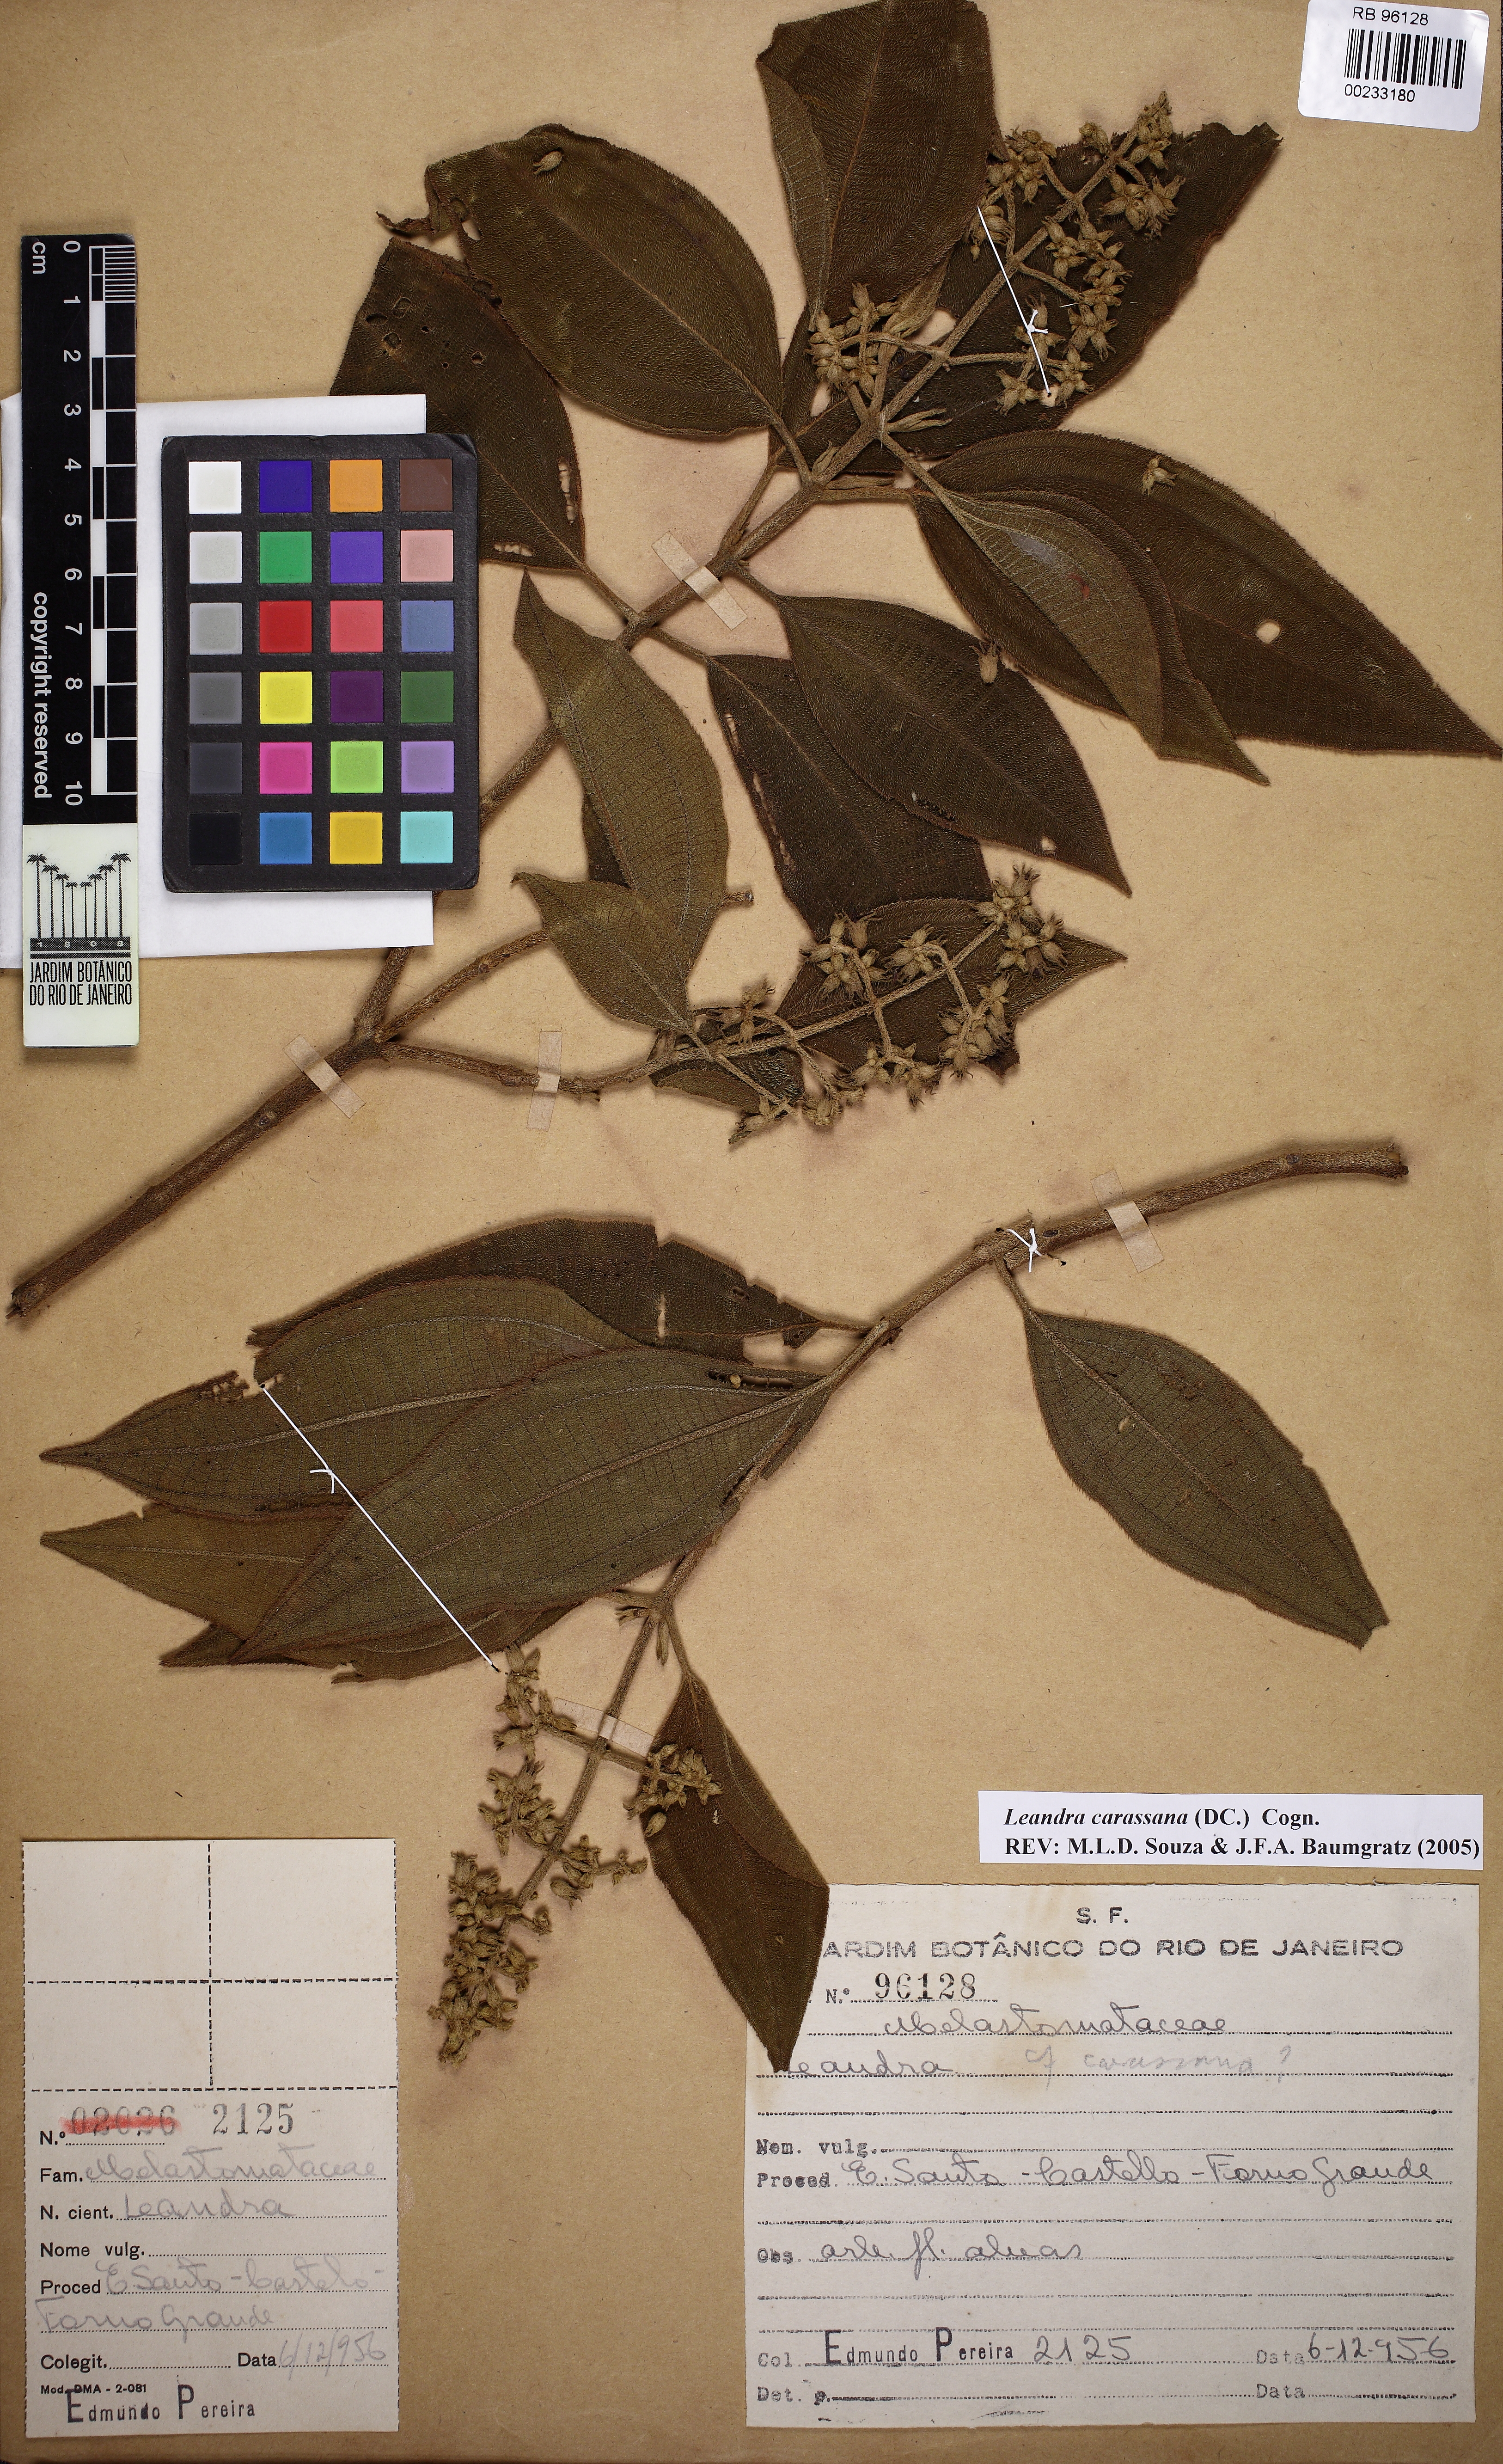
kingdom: Plantae
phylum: Tracheophyta
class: Magnoliopsida
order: Myrtales
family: Melastomataceae
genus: Miconia
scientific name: Miconia sublanata
